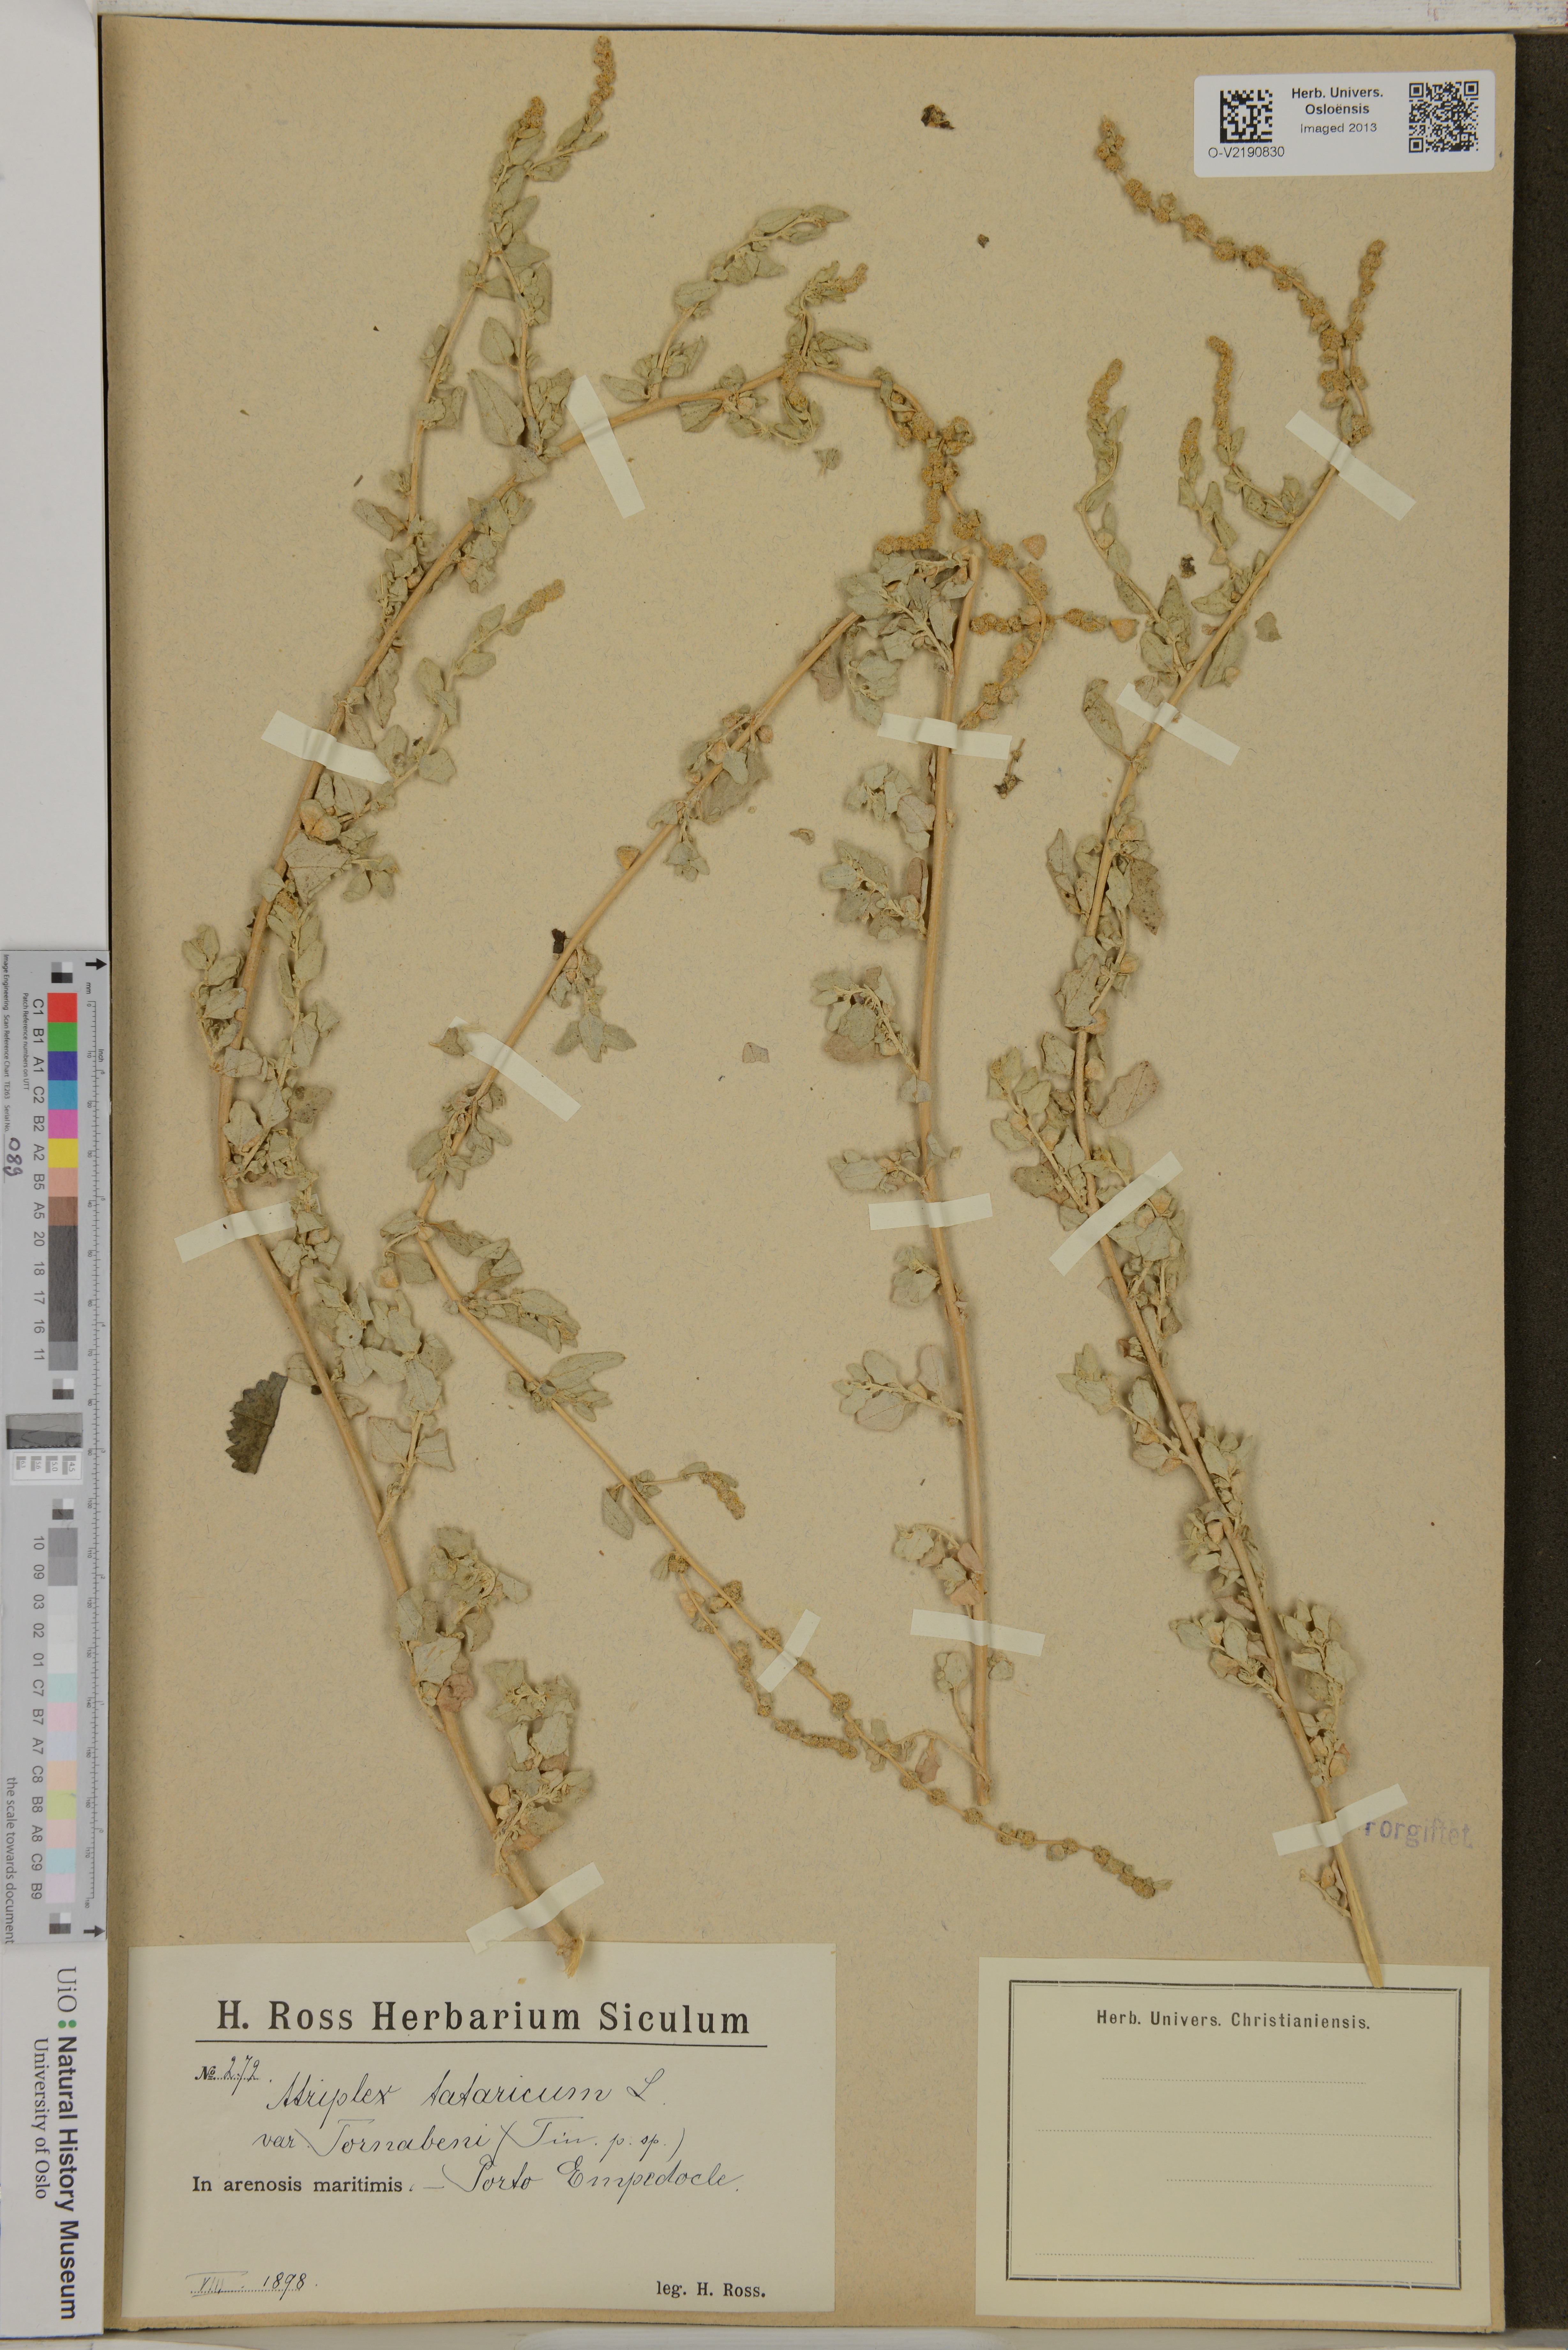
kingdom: Plantae
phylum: Tracheophyta
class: Magnoliopsida
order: Caryophyllales
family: Amaranthaceae
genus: Atriplex
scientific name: Atriplex tatarica
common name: Tatarian orache
